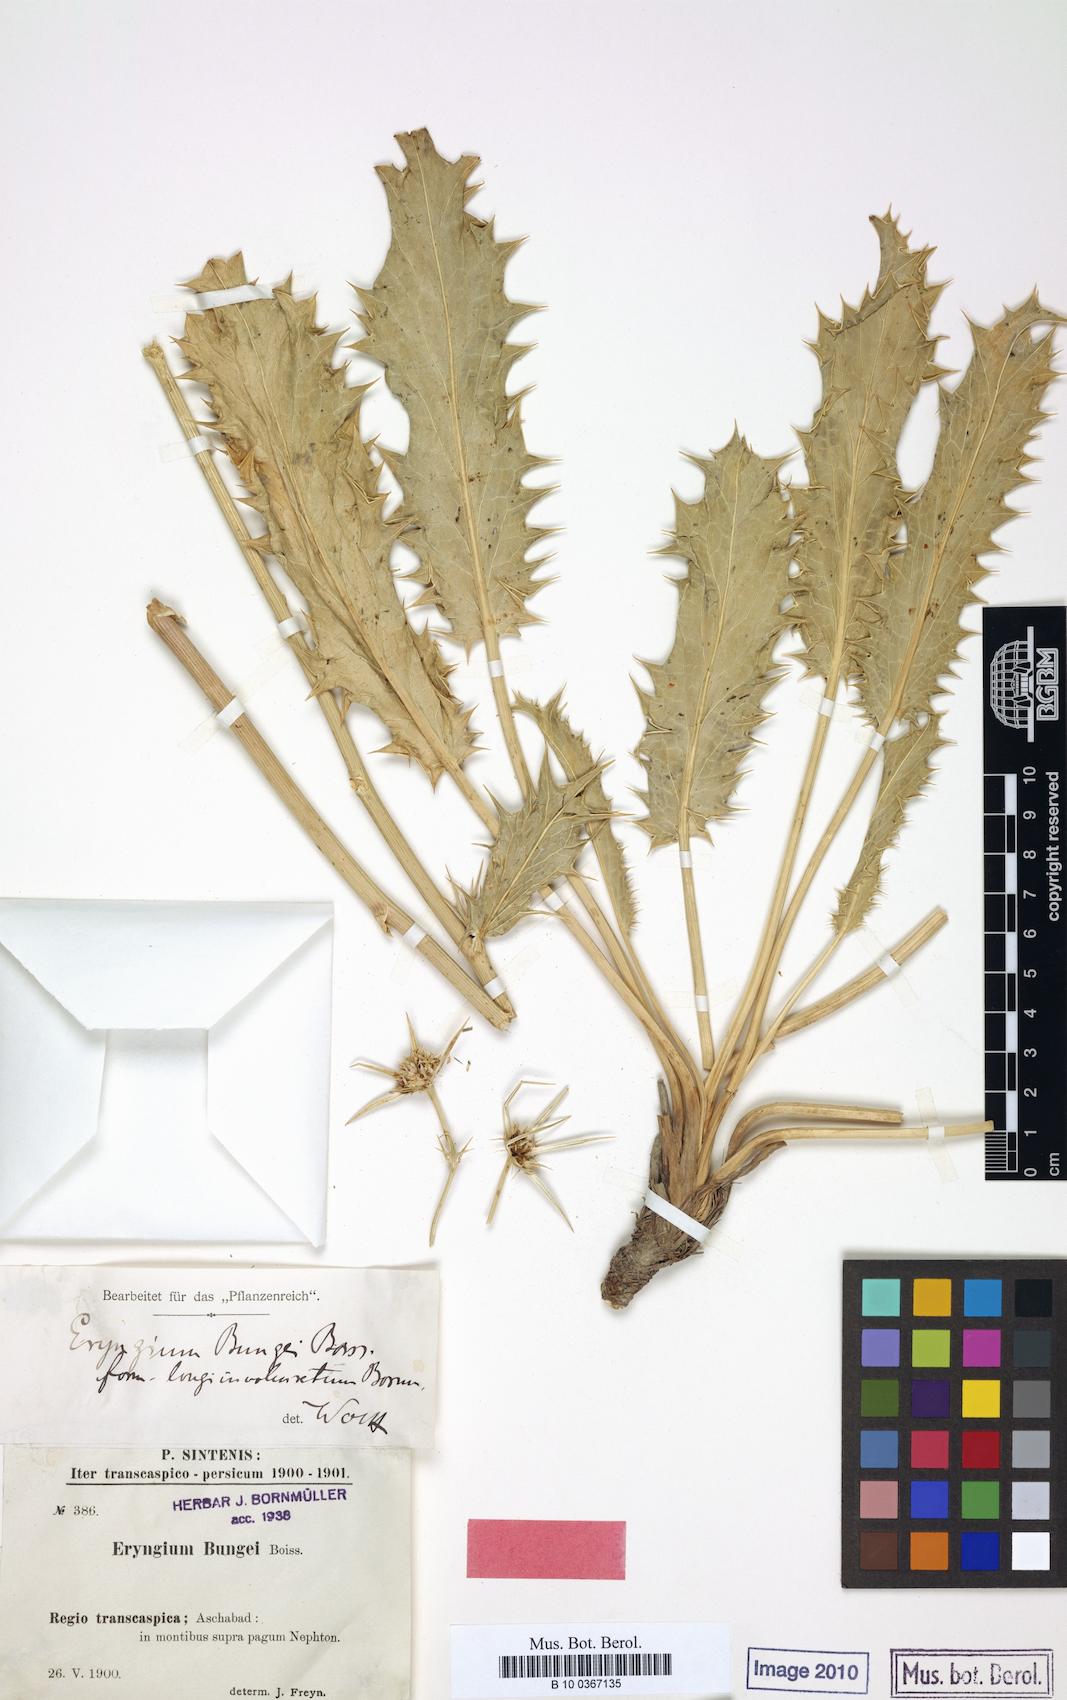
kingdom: Plantae
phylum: Tracheophyta
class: Magnoliopsida
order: Apiales
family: Apiaceae
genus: Eryngium
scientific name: Eryngium bungei
